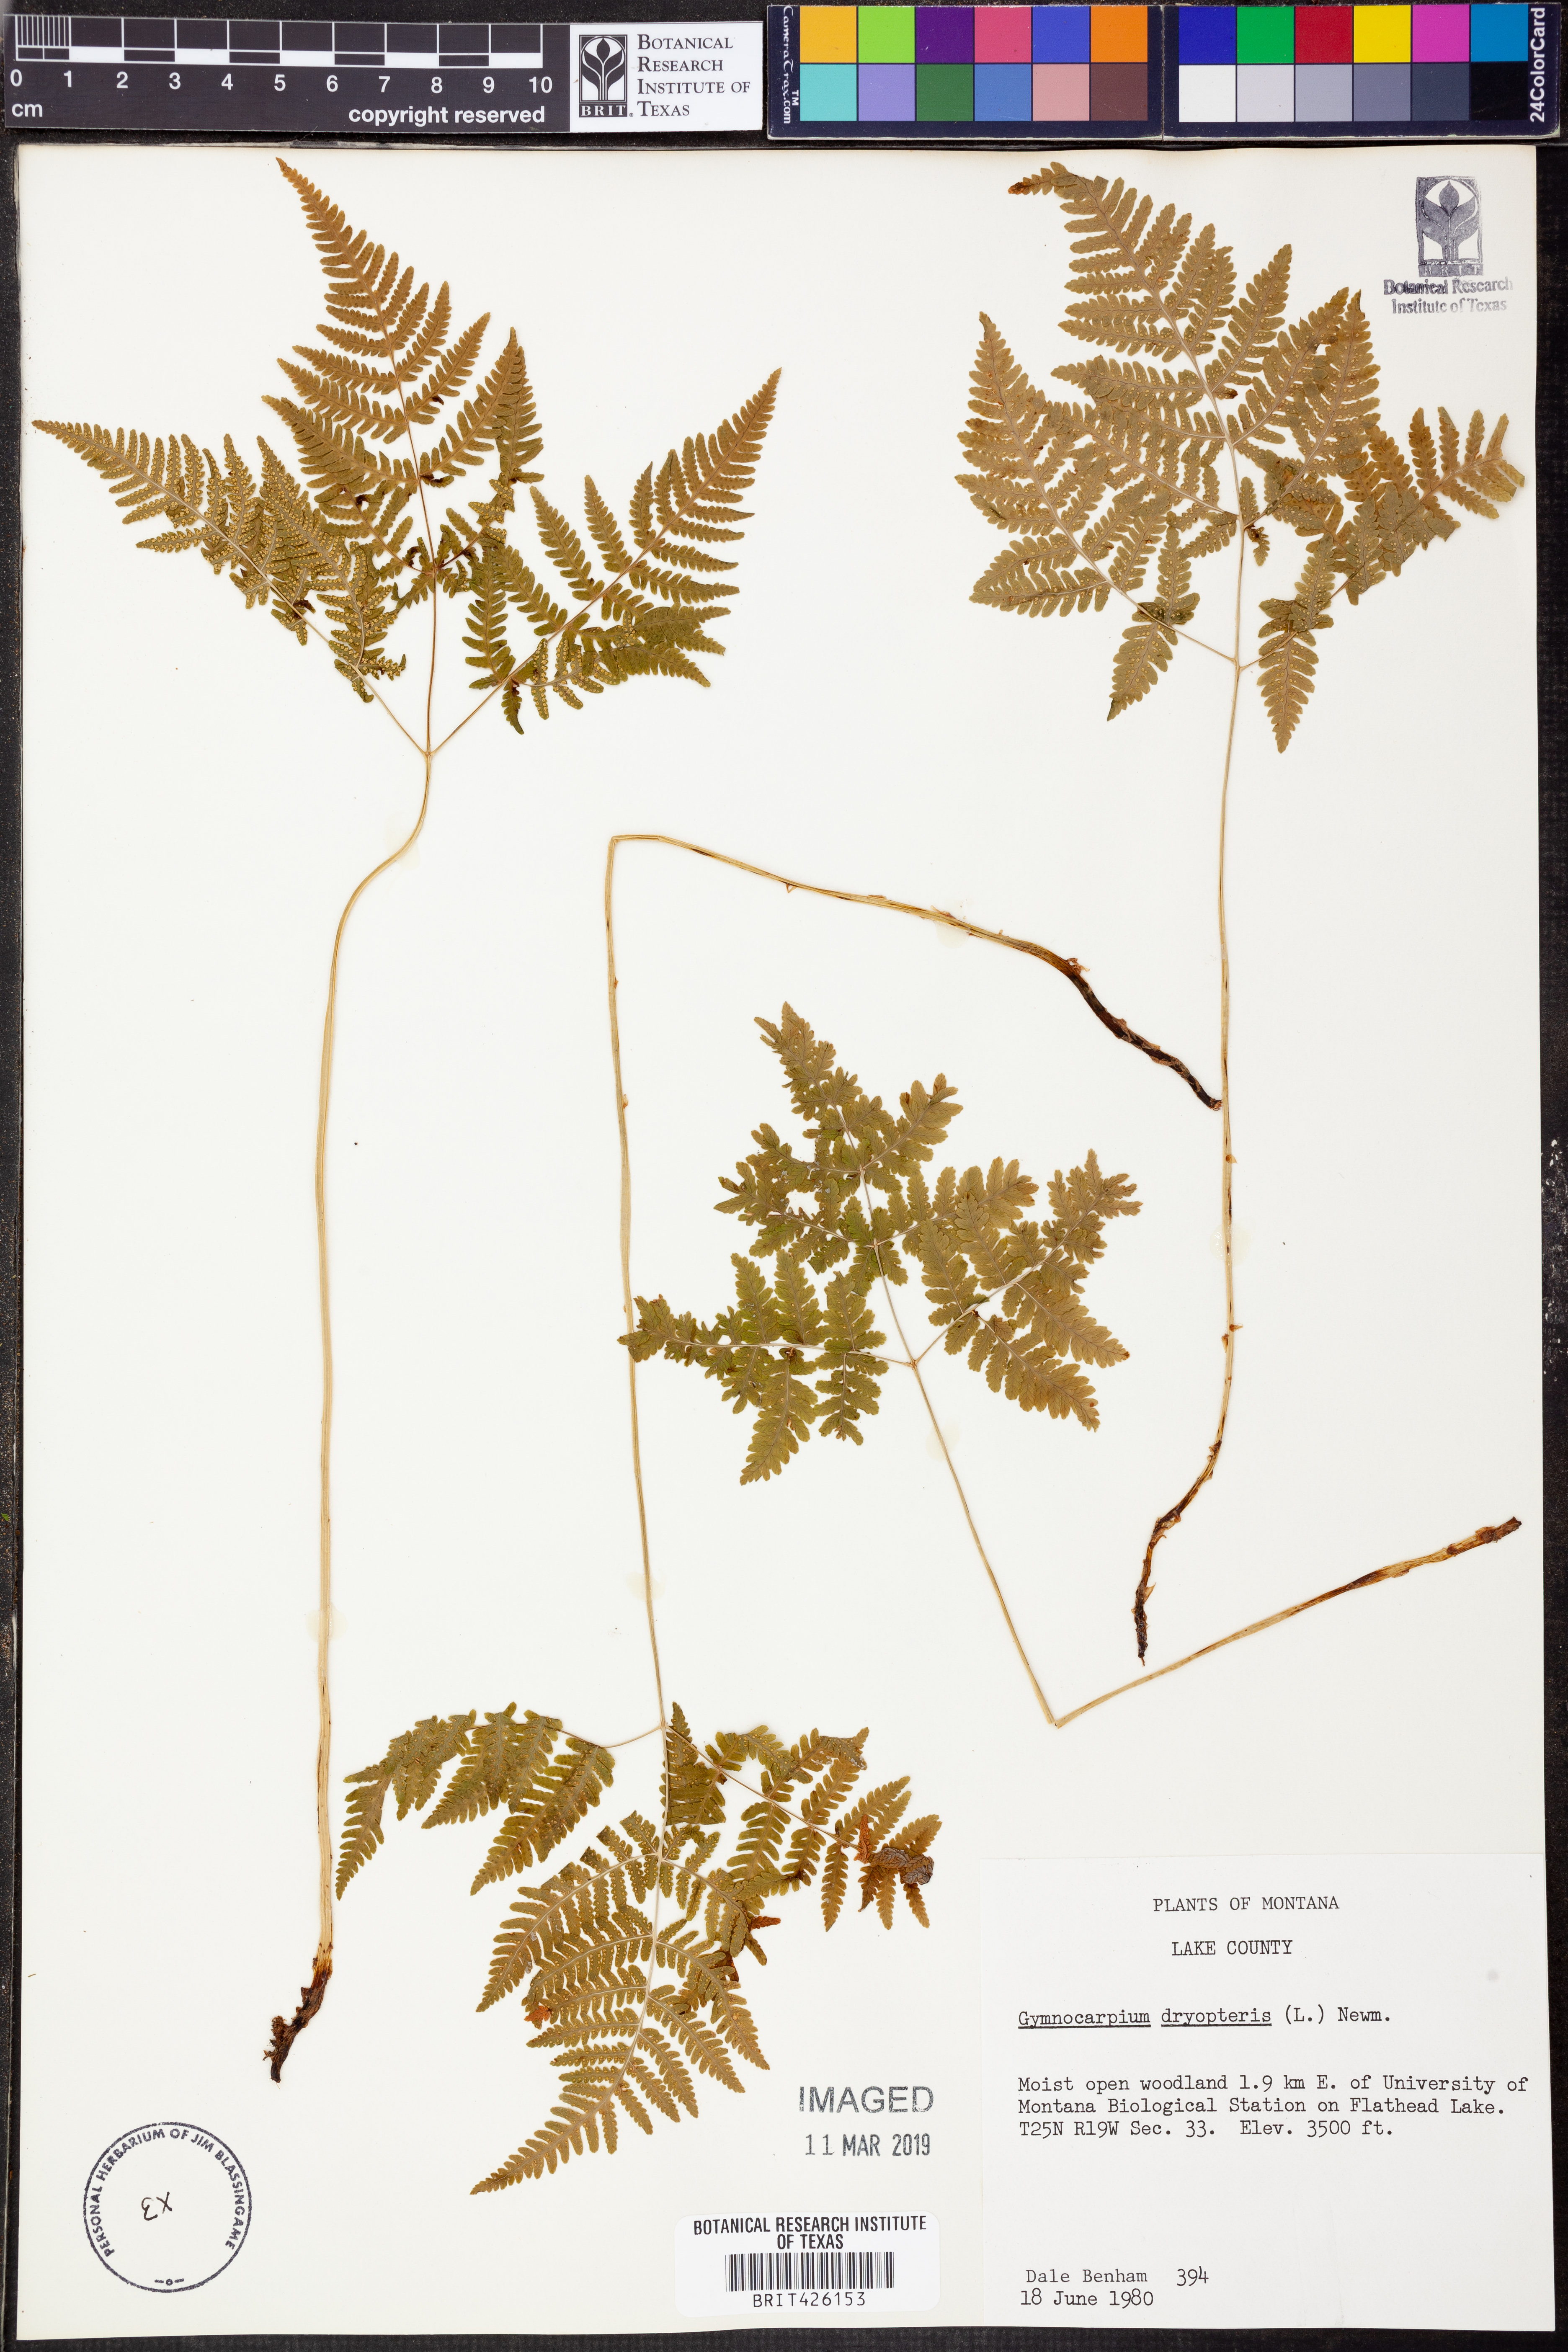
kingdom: Plantae
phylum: Tracheophyta
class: Polypodiopsida
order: Polypodiales
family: Cystopteridaceae
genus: Gymnocarpium
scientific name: Gymnocarpium dryopteris
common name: Oak fern
